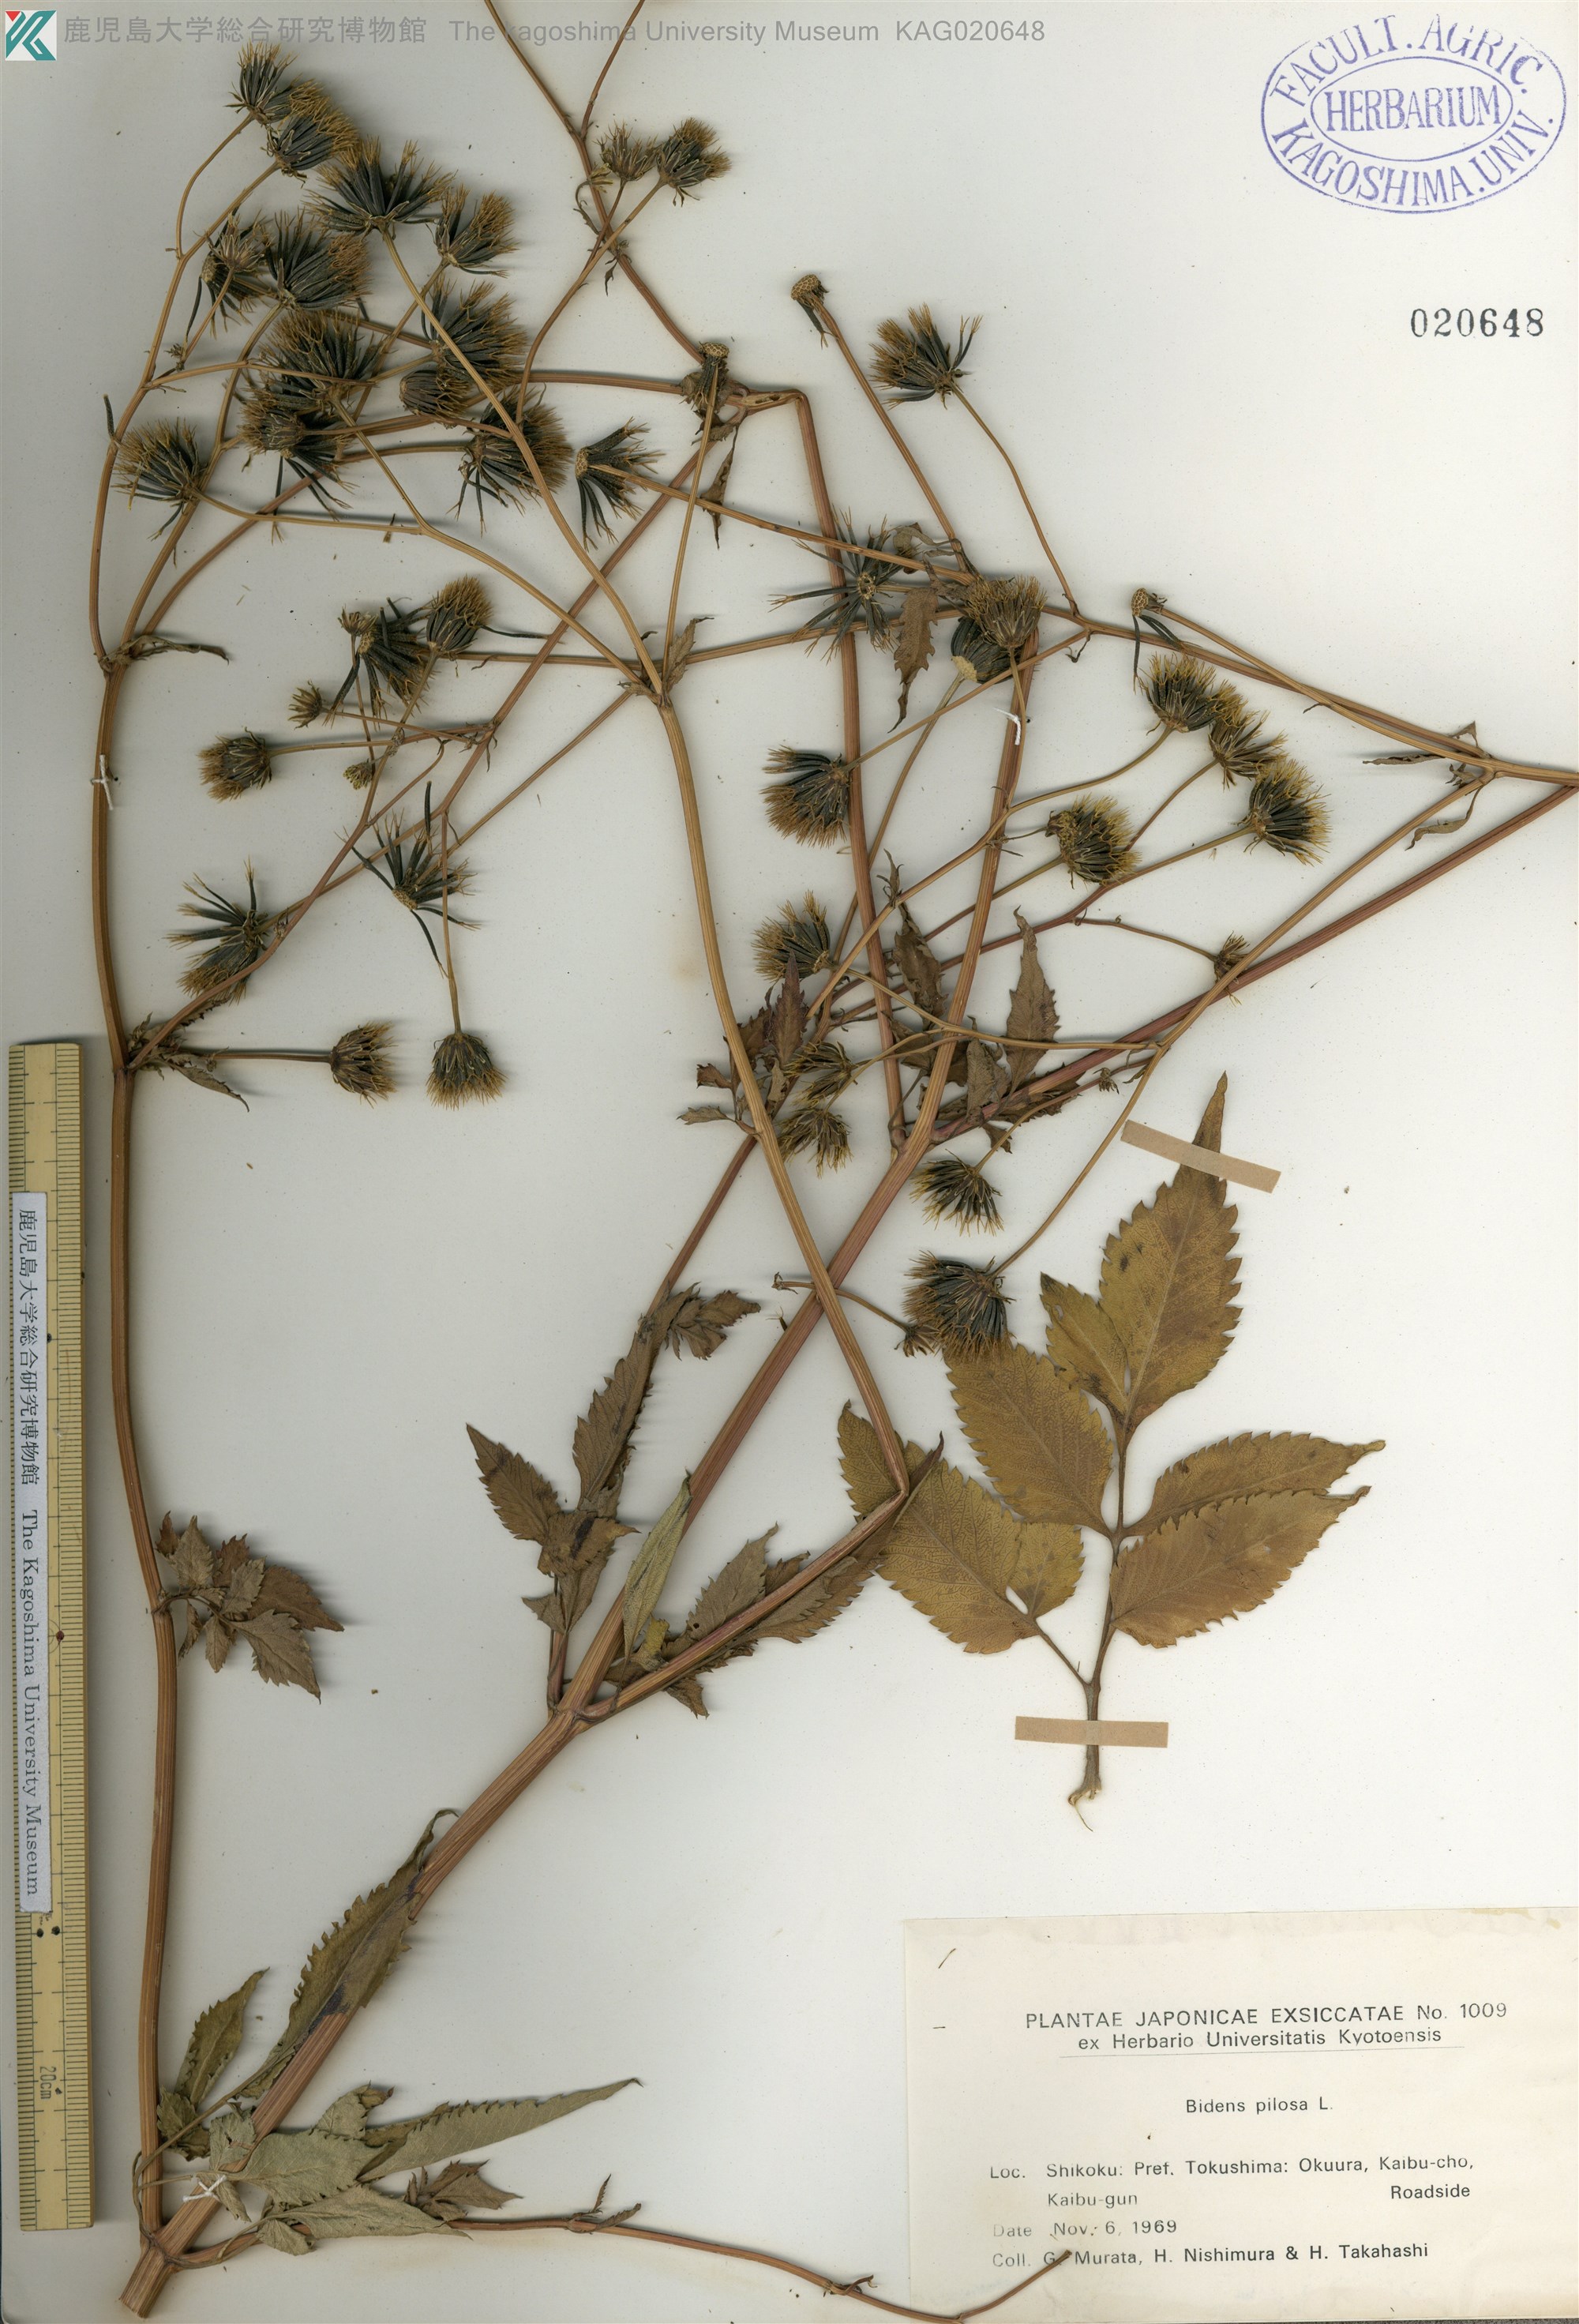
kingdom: Plantae
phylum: Tracheophyta
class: Magnoliopsida
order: Asterales
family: Asteraceae
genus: Bidens
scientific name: Bidens pilosa
